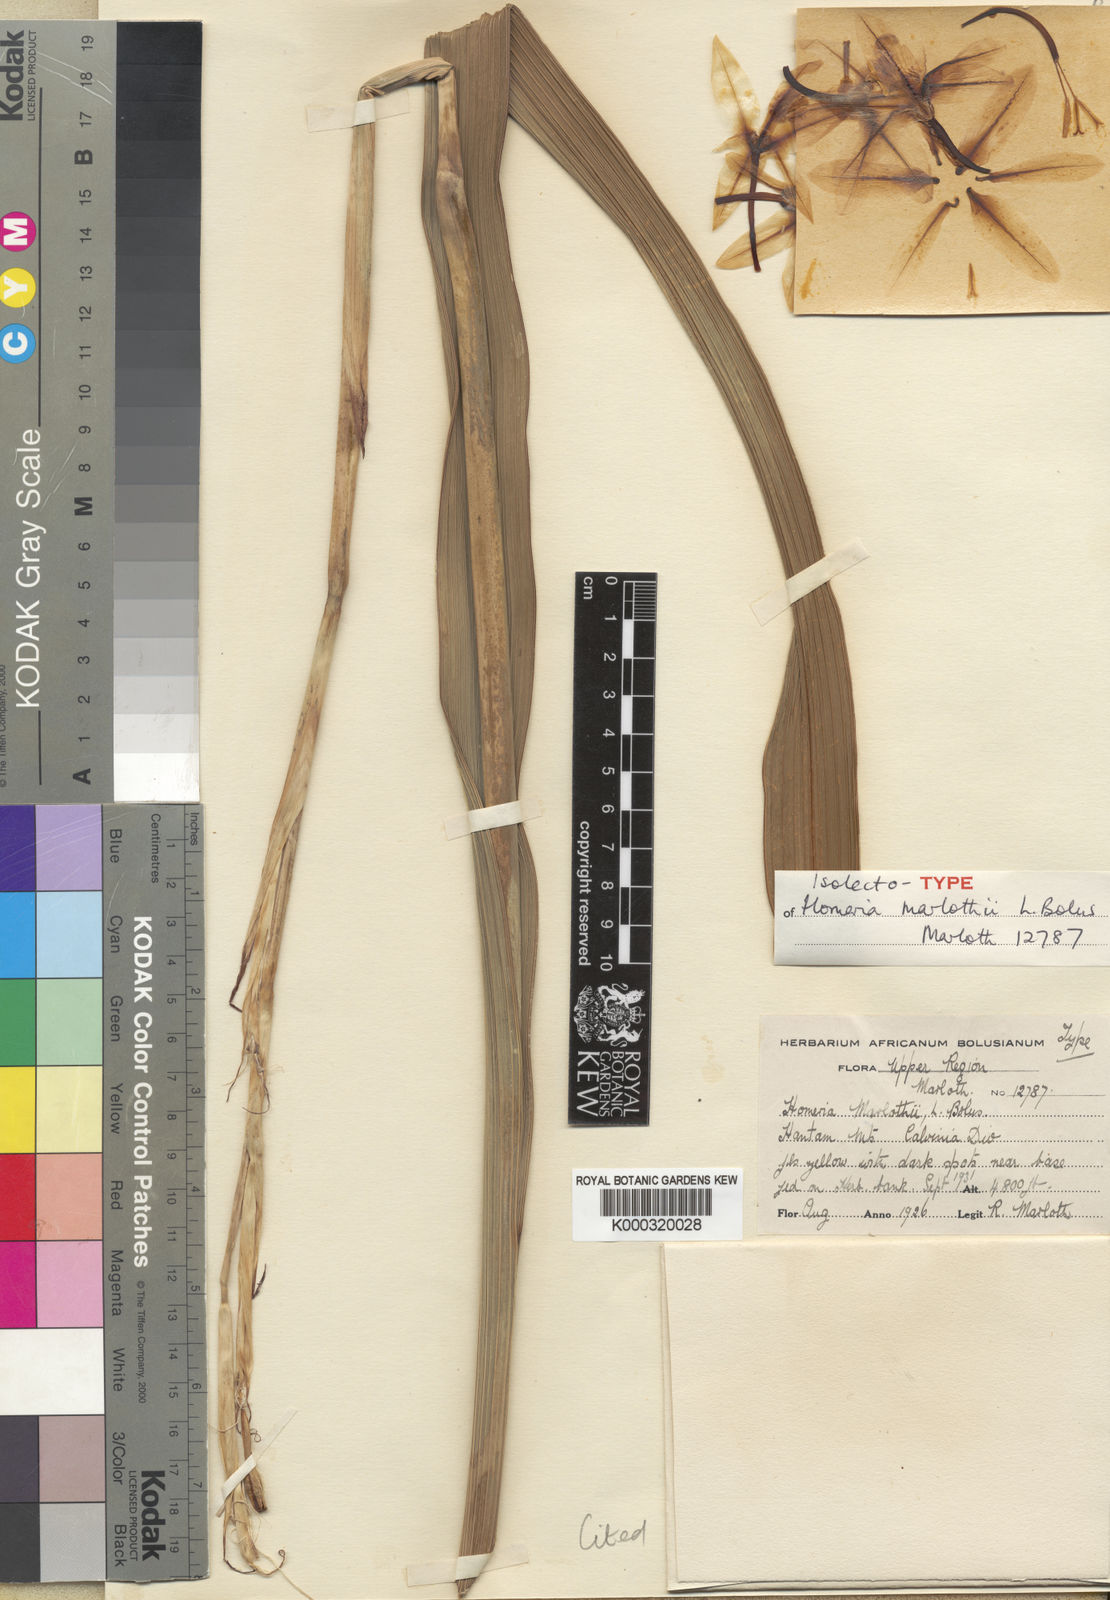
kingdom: Plantae
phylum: Tracheophyta
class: Liliopsida
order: Asparagales
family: Iridaceae
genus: Moraea
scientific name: Moraea marlothii
